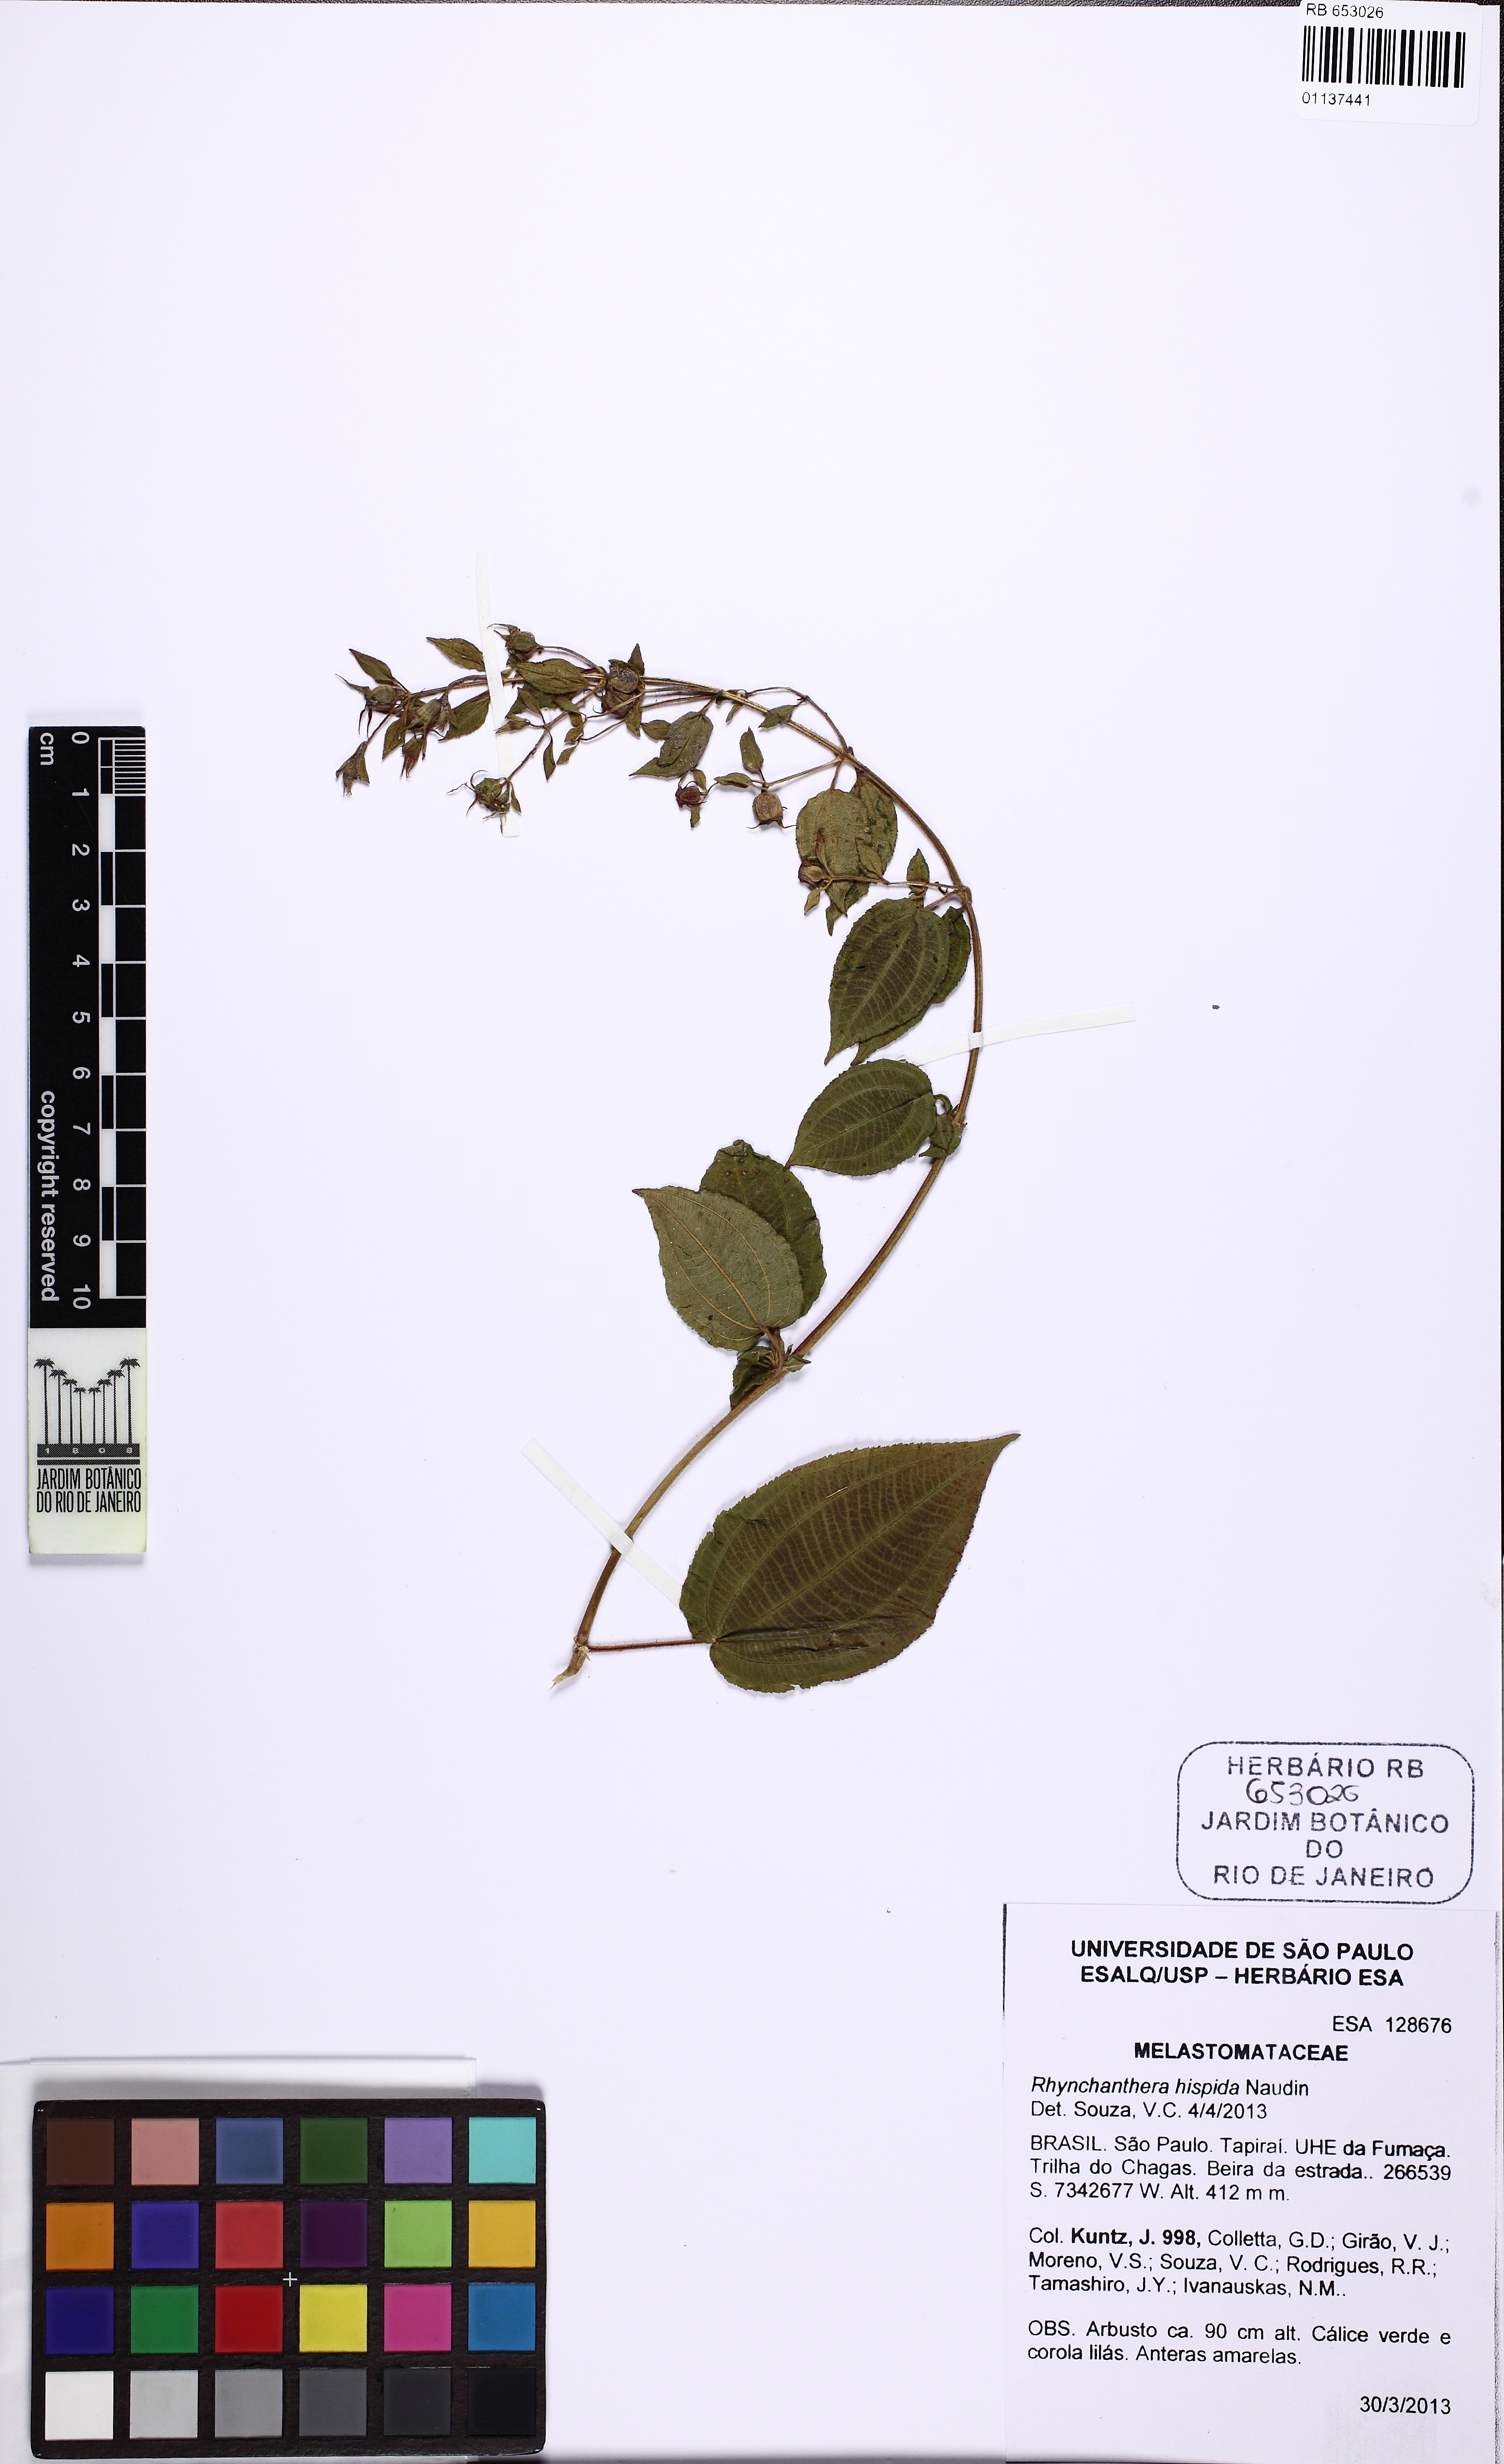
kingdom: Plantae
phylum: Tracheophyta
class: Magnoliopsida
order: Myrtales
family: Melastomataceae
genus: Rhynchanthera
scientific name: Rhynchanthera hispida
